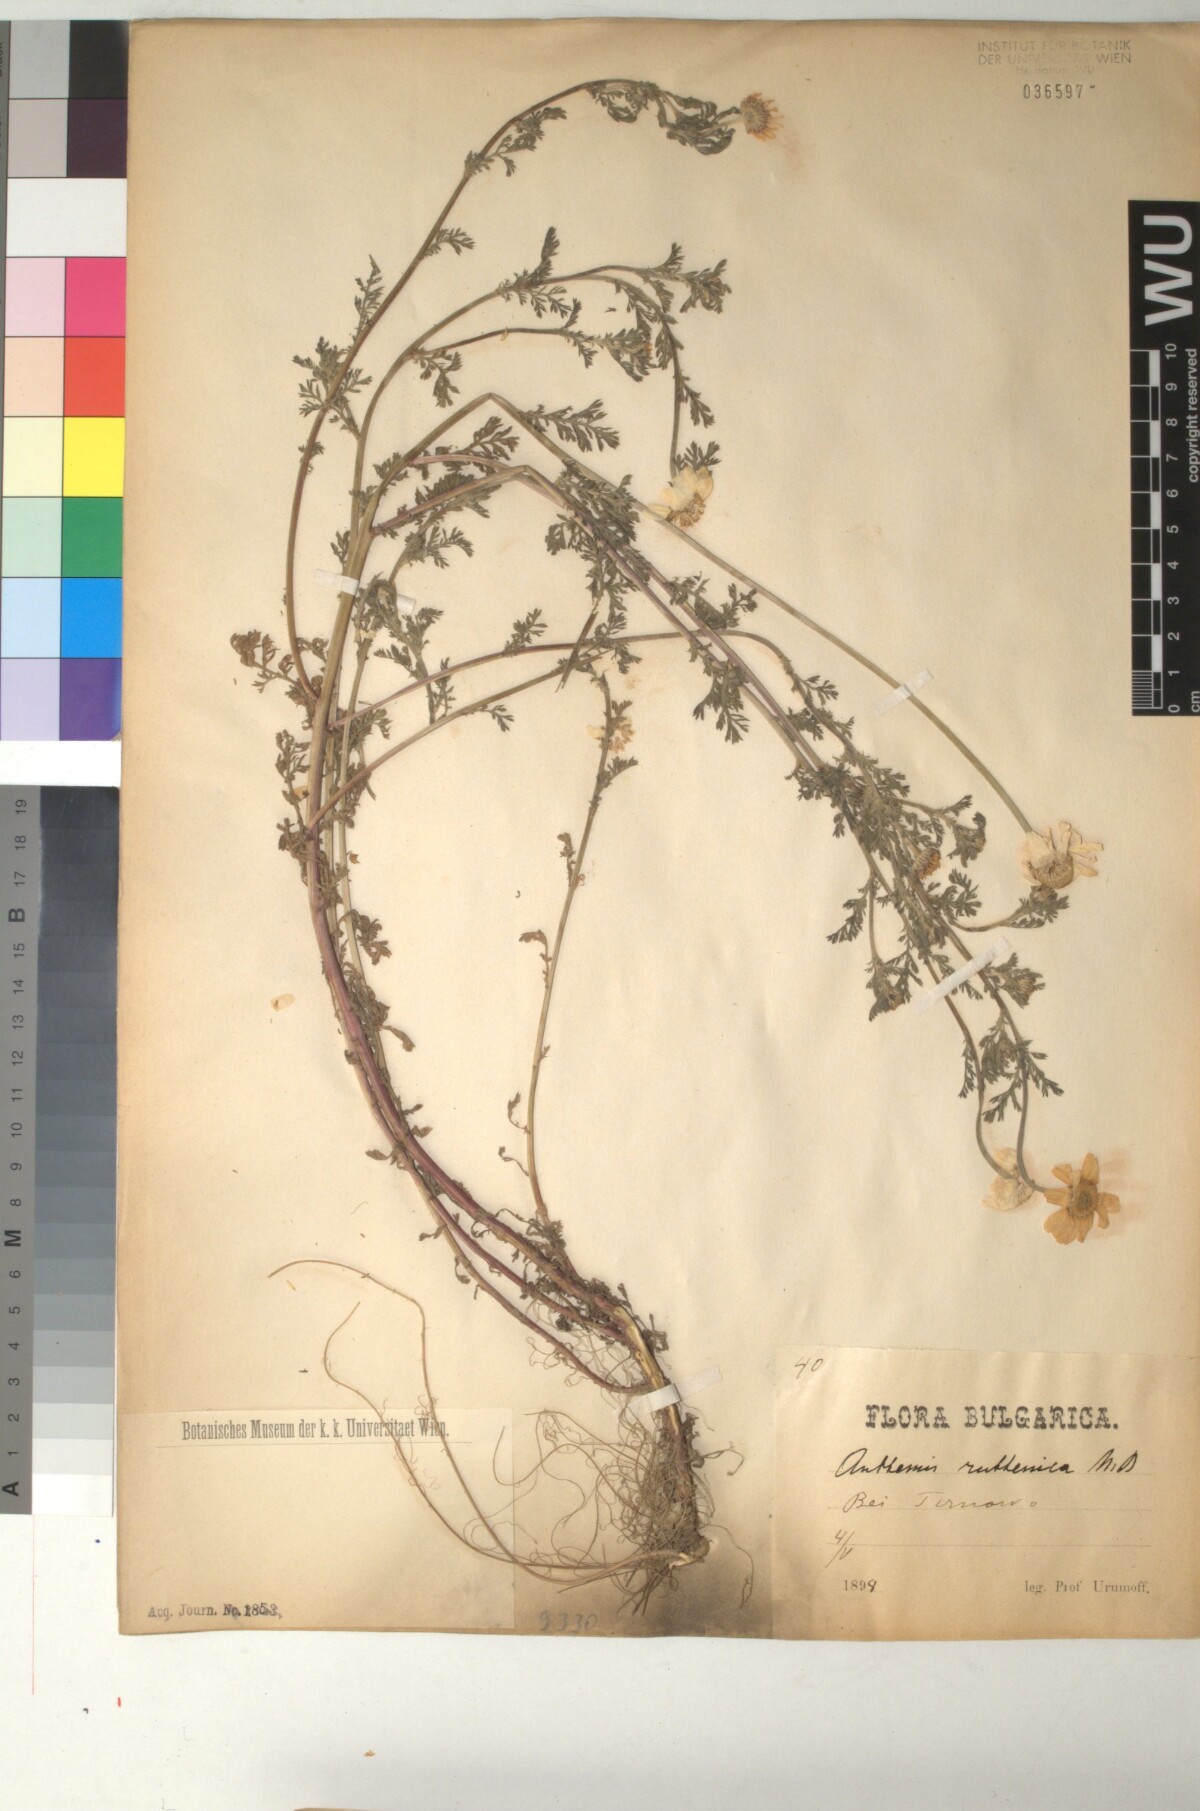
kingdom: Plantae
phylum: Tracheophyta
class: Magnoliopsida
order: Asterales
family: Asteraceae
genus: Anthemis
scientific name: Anthemis ruthenica
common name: Eastern chamomile
